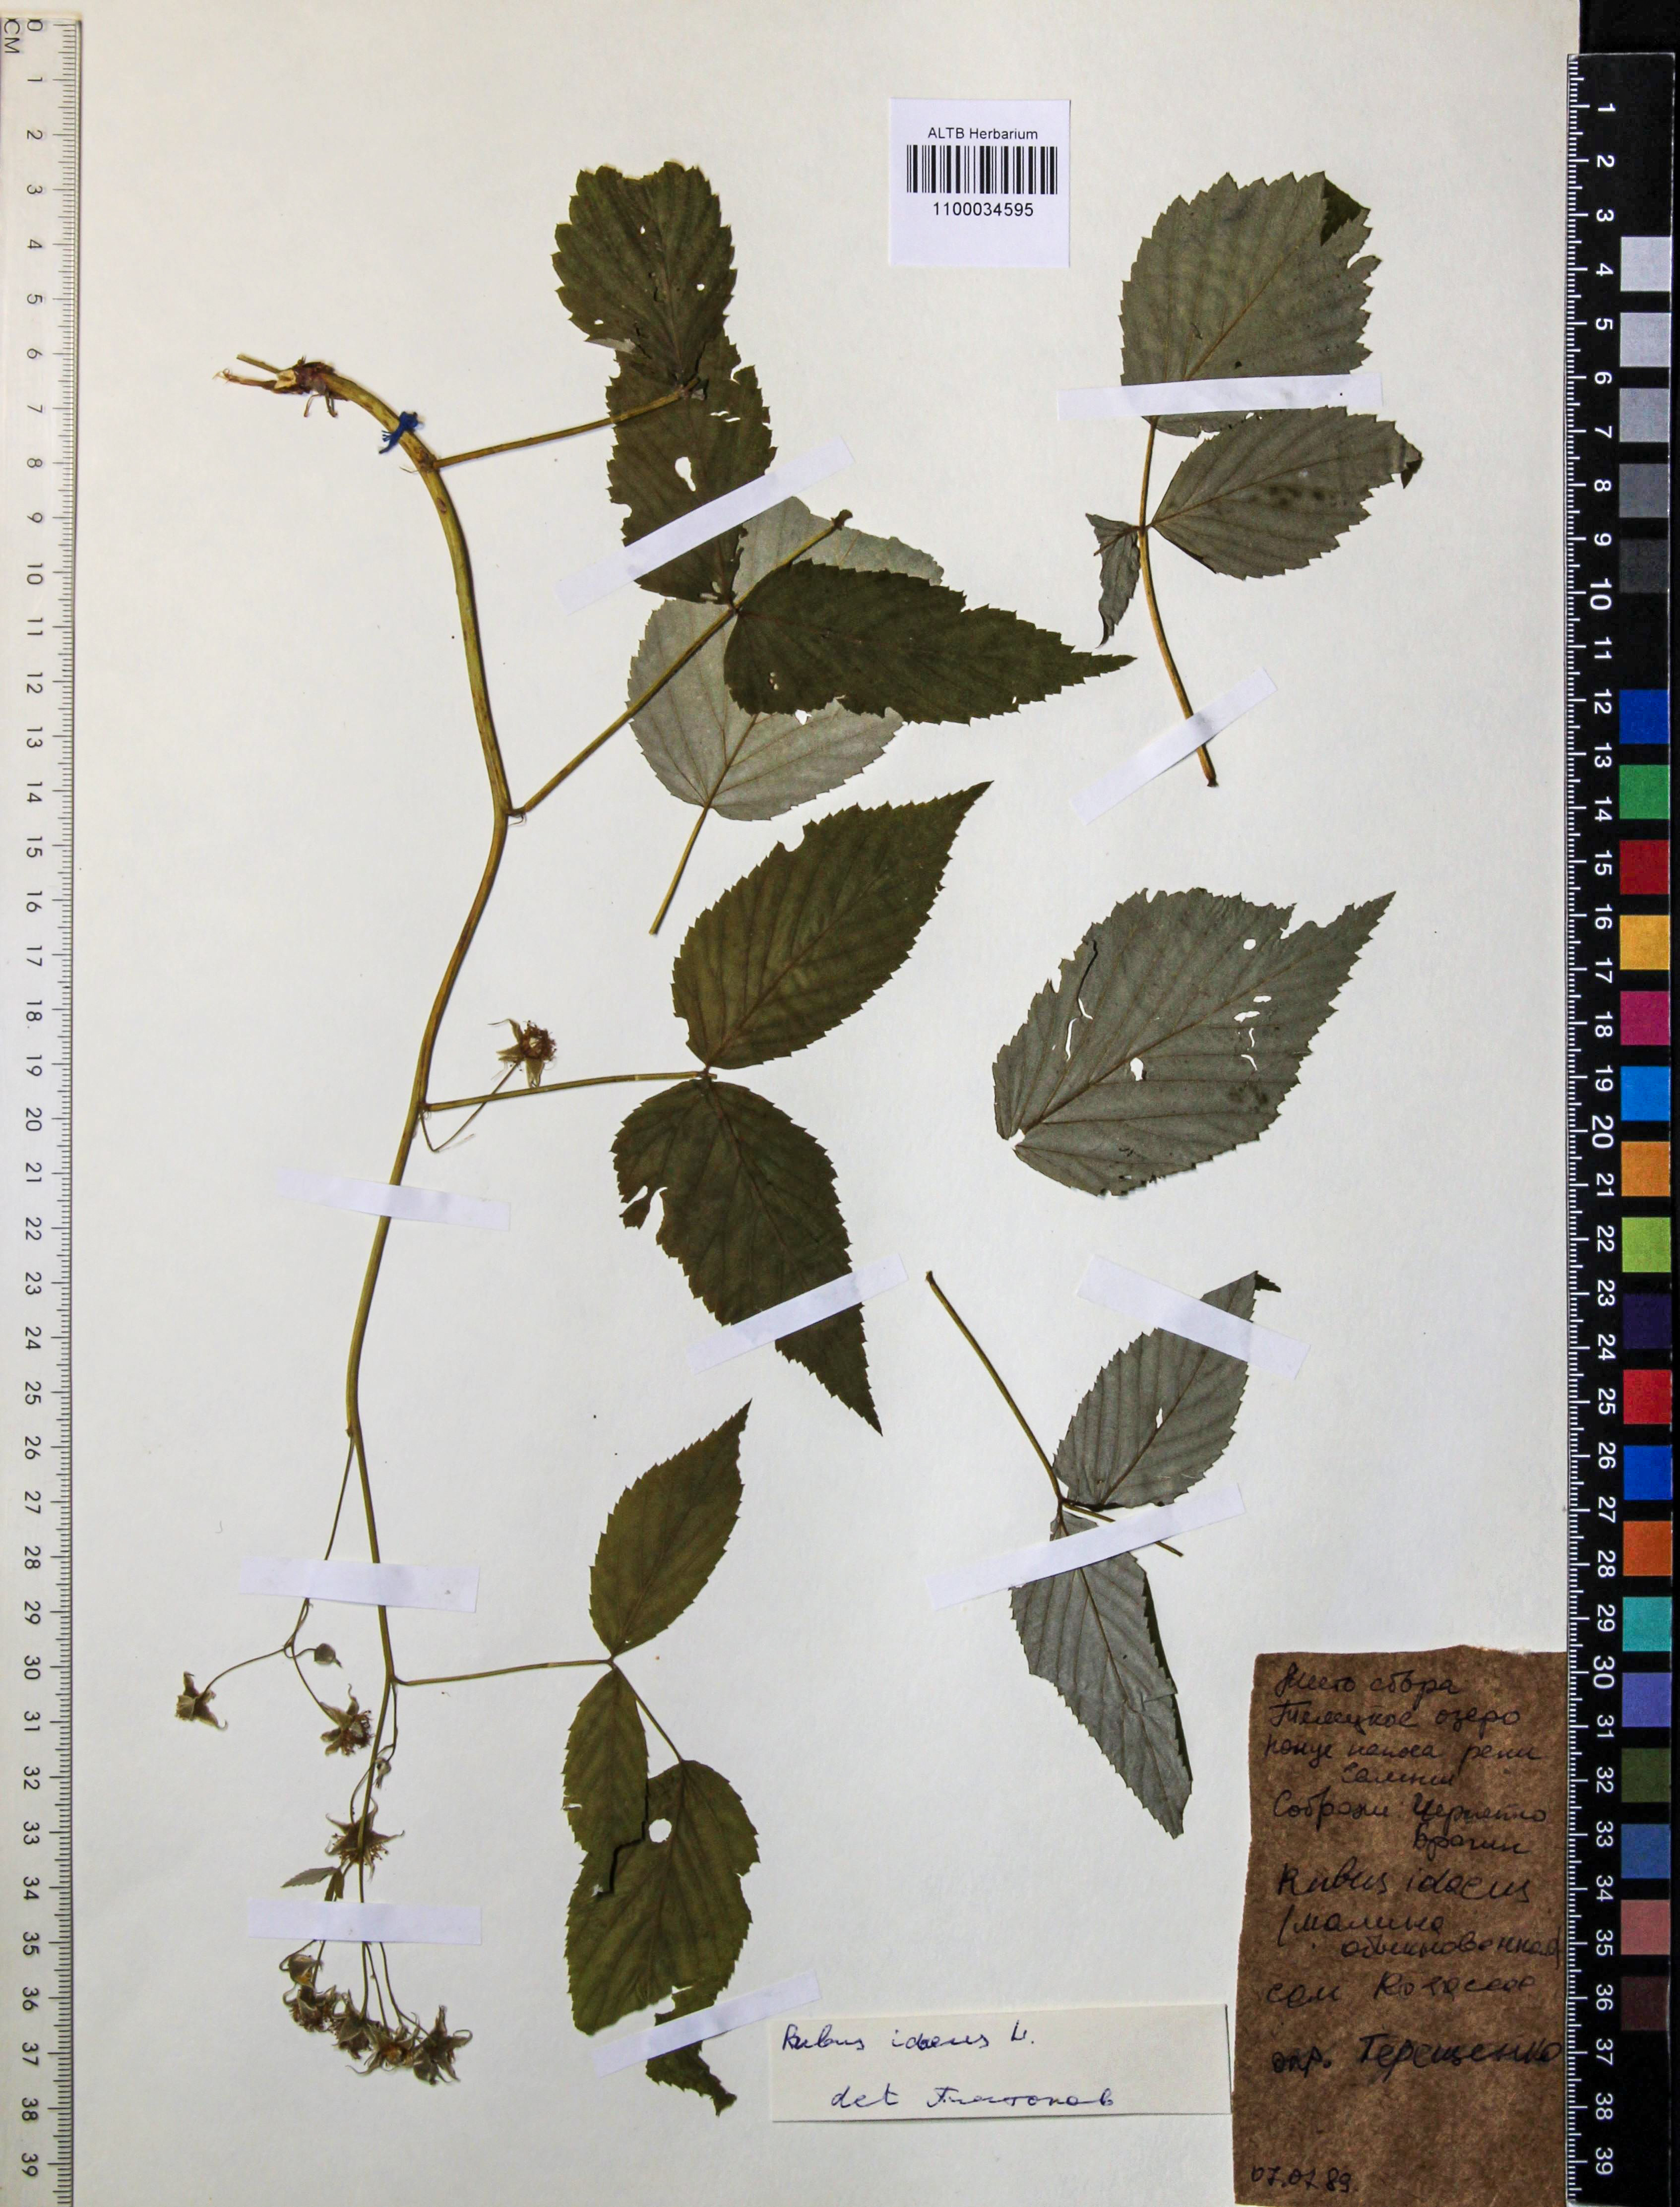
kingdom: Plantae
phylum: Tracheophyta
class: Magnoliopsida
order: Rosales
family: Rosaceae
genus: Rubus
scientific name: Rubus idaeus
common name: Raspberry
